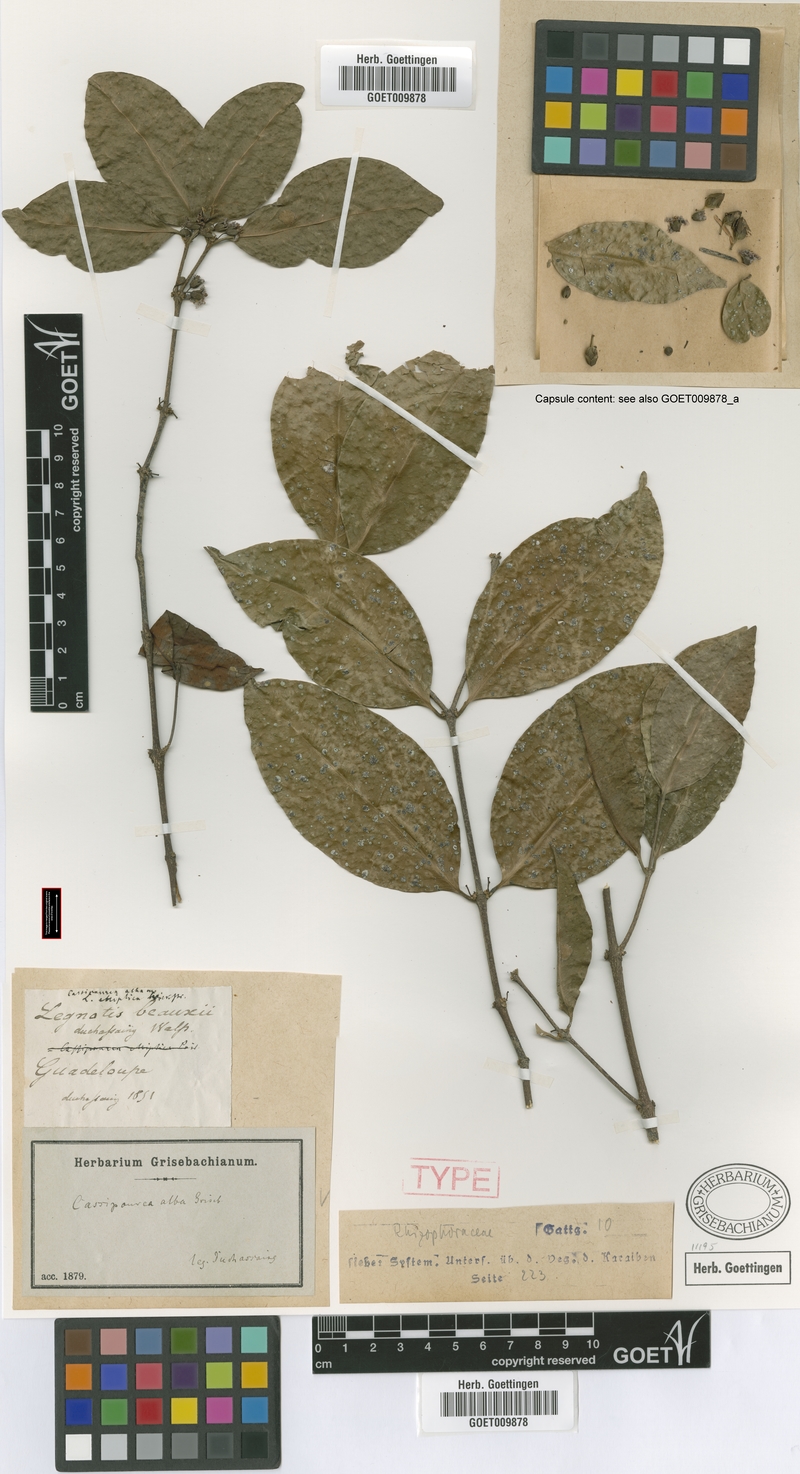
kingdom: Plantae
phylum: Tracheophyta
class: Magnoliopsida
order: Malpighiales
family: Rhizophoraceae
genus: Cassipourea
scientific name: Cassipourea elliptica
